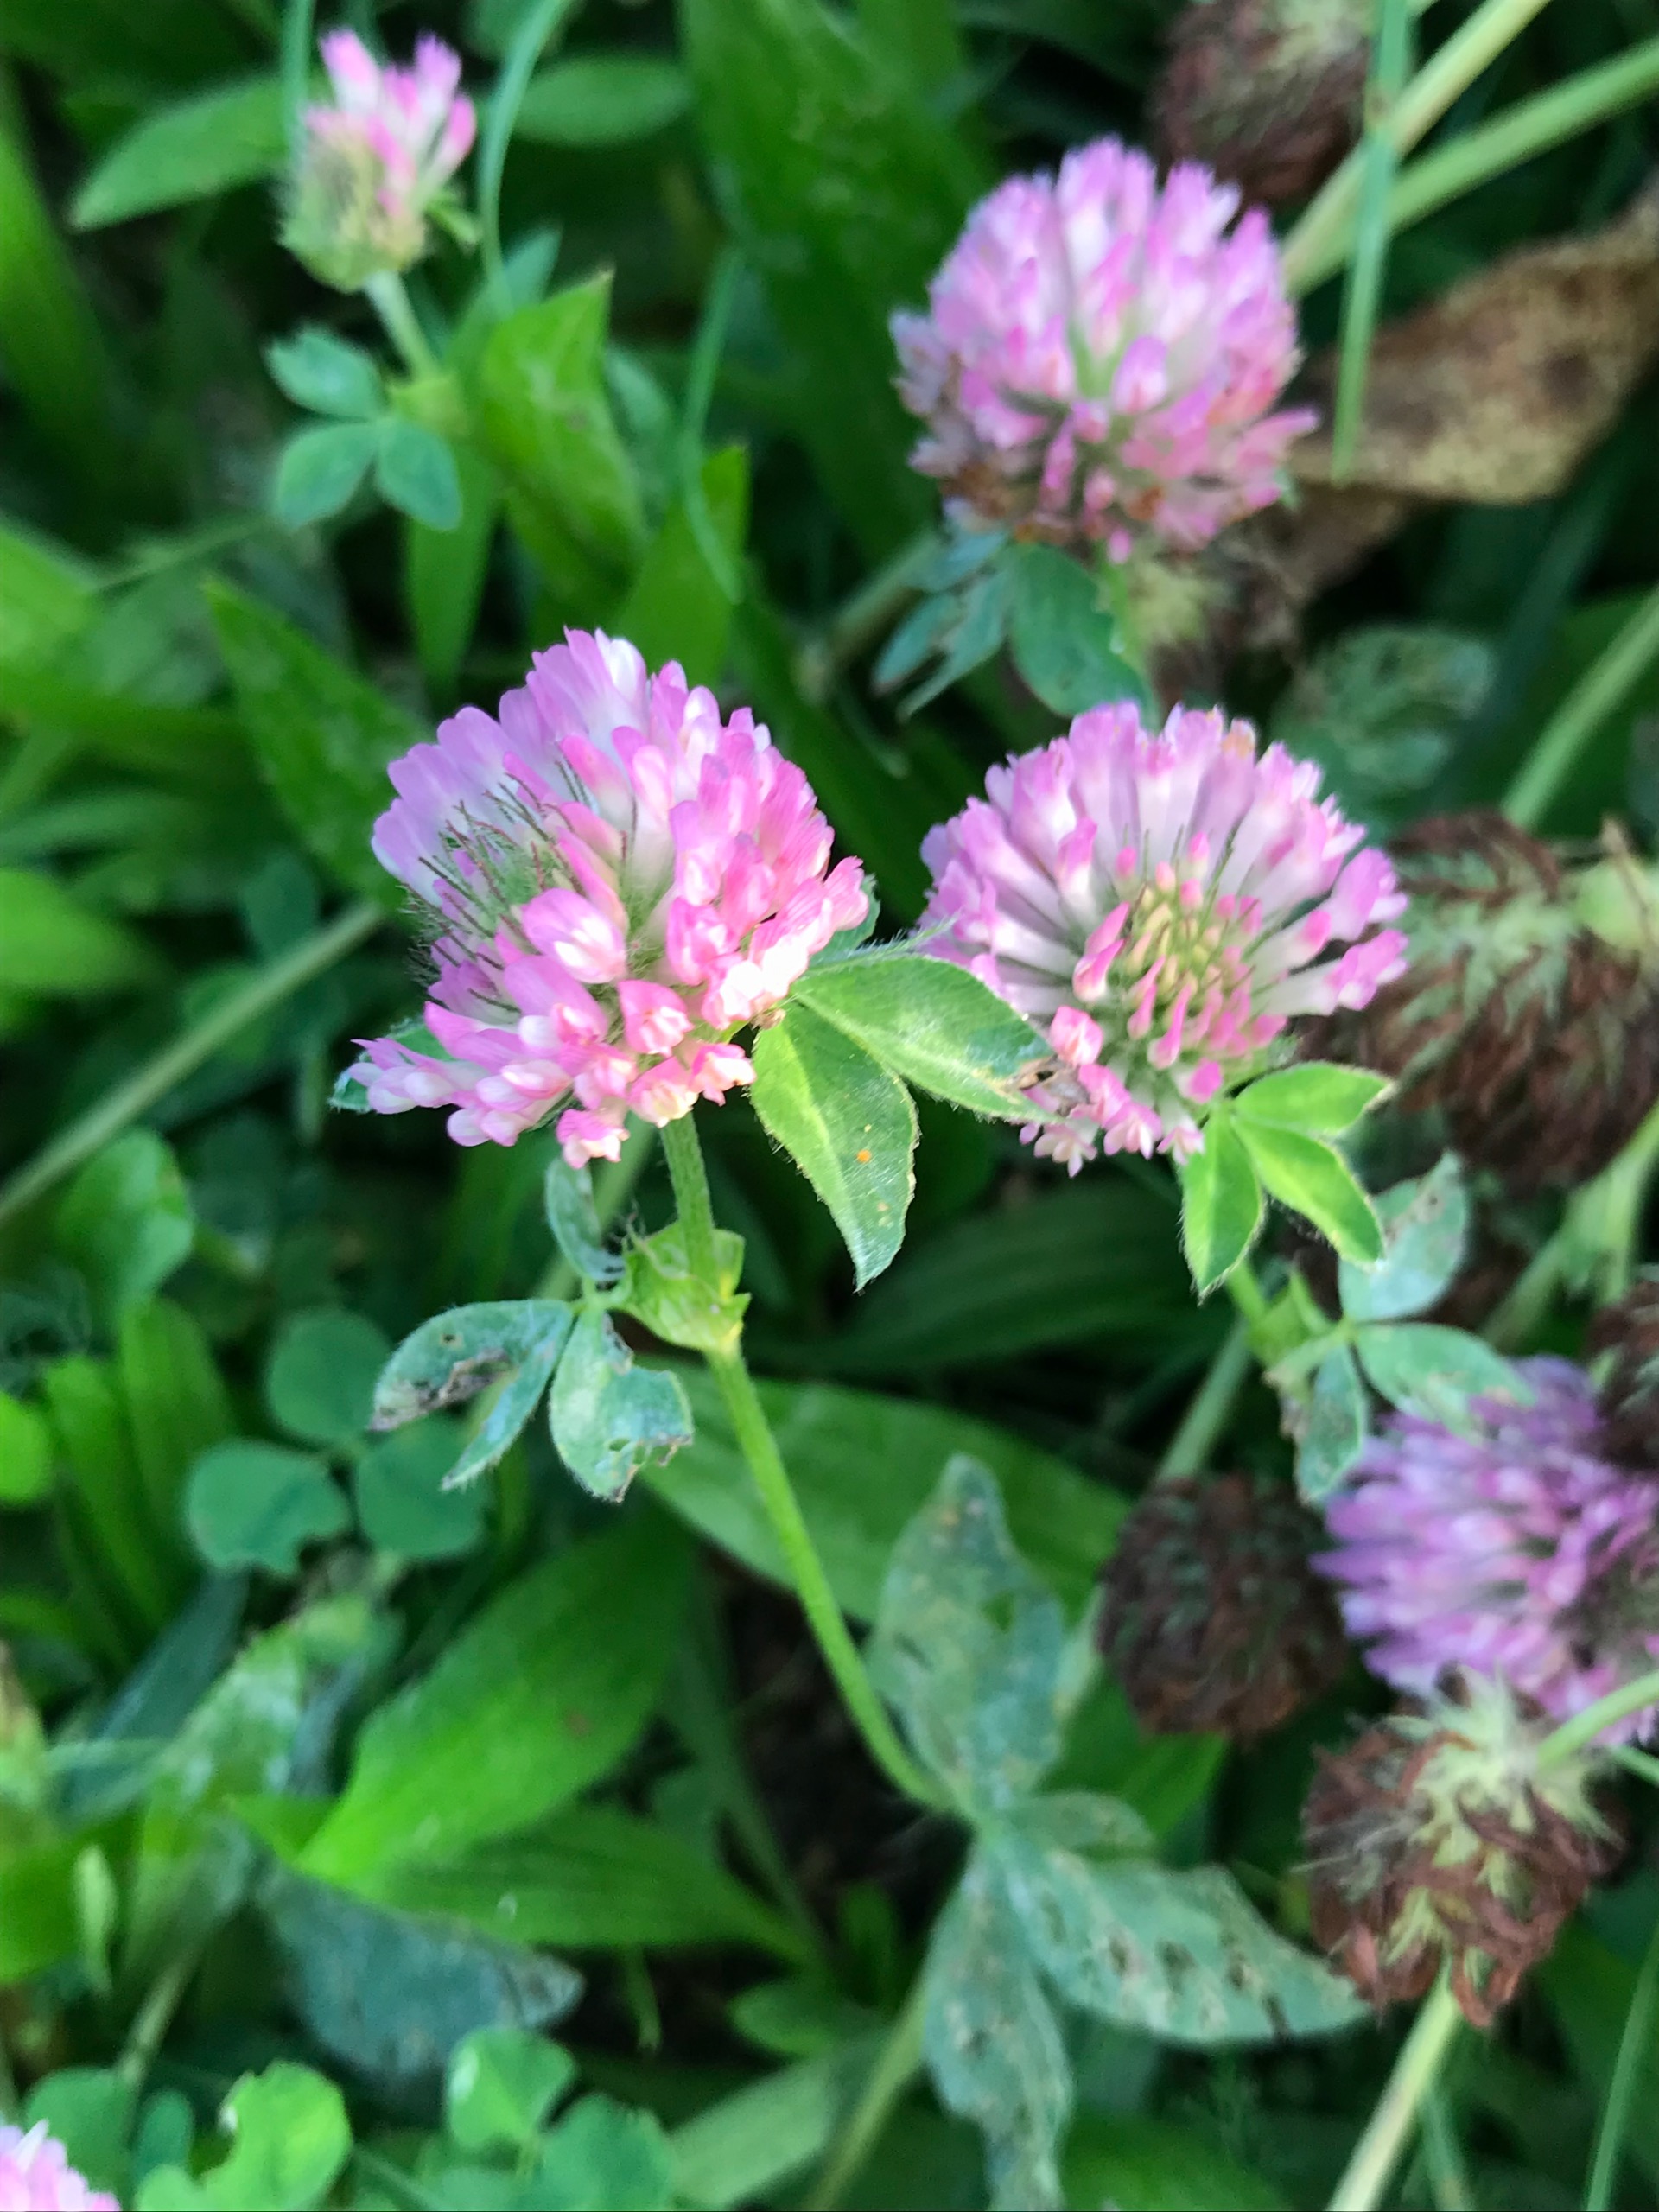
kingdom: Plantae
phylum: Tracheophyta
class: Magnoliopsida
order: Fabales
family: Fabaceae
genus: Trifolium
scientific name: Trifolium pratense
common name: Rød-kløver
